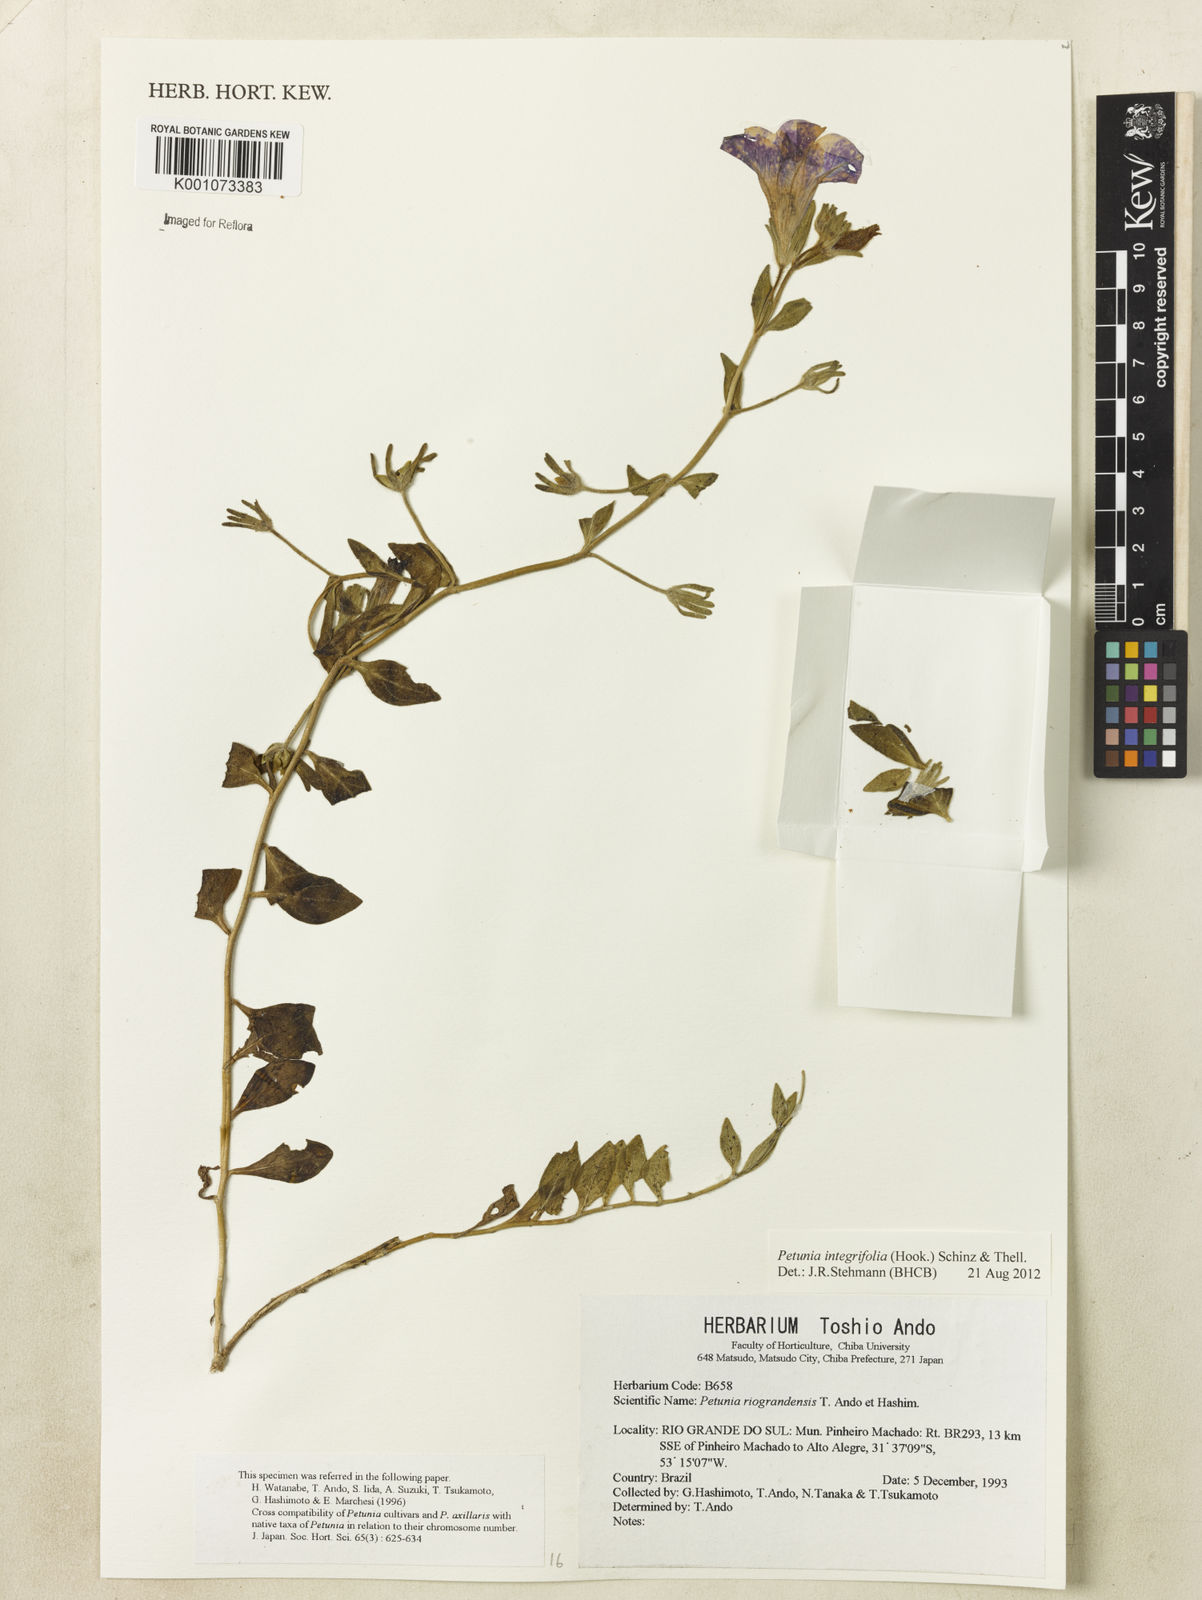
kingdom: Plantae
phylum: Tracheophyta
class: Magnoliopsida
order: Solanales
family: Solanaceae
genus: Petunia
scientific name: Petunia integrifolia
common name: Violet-flower petunia
